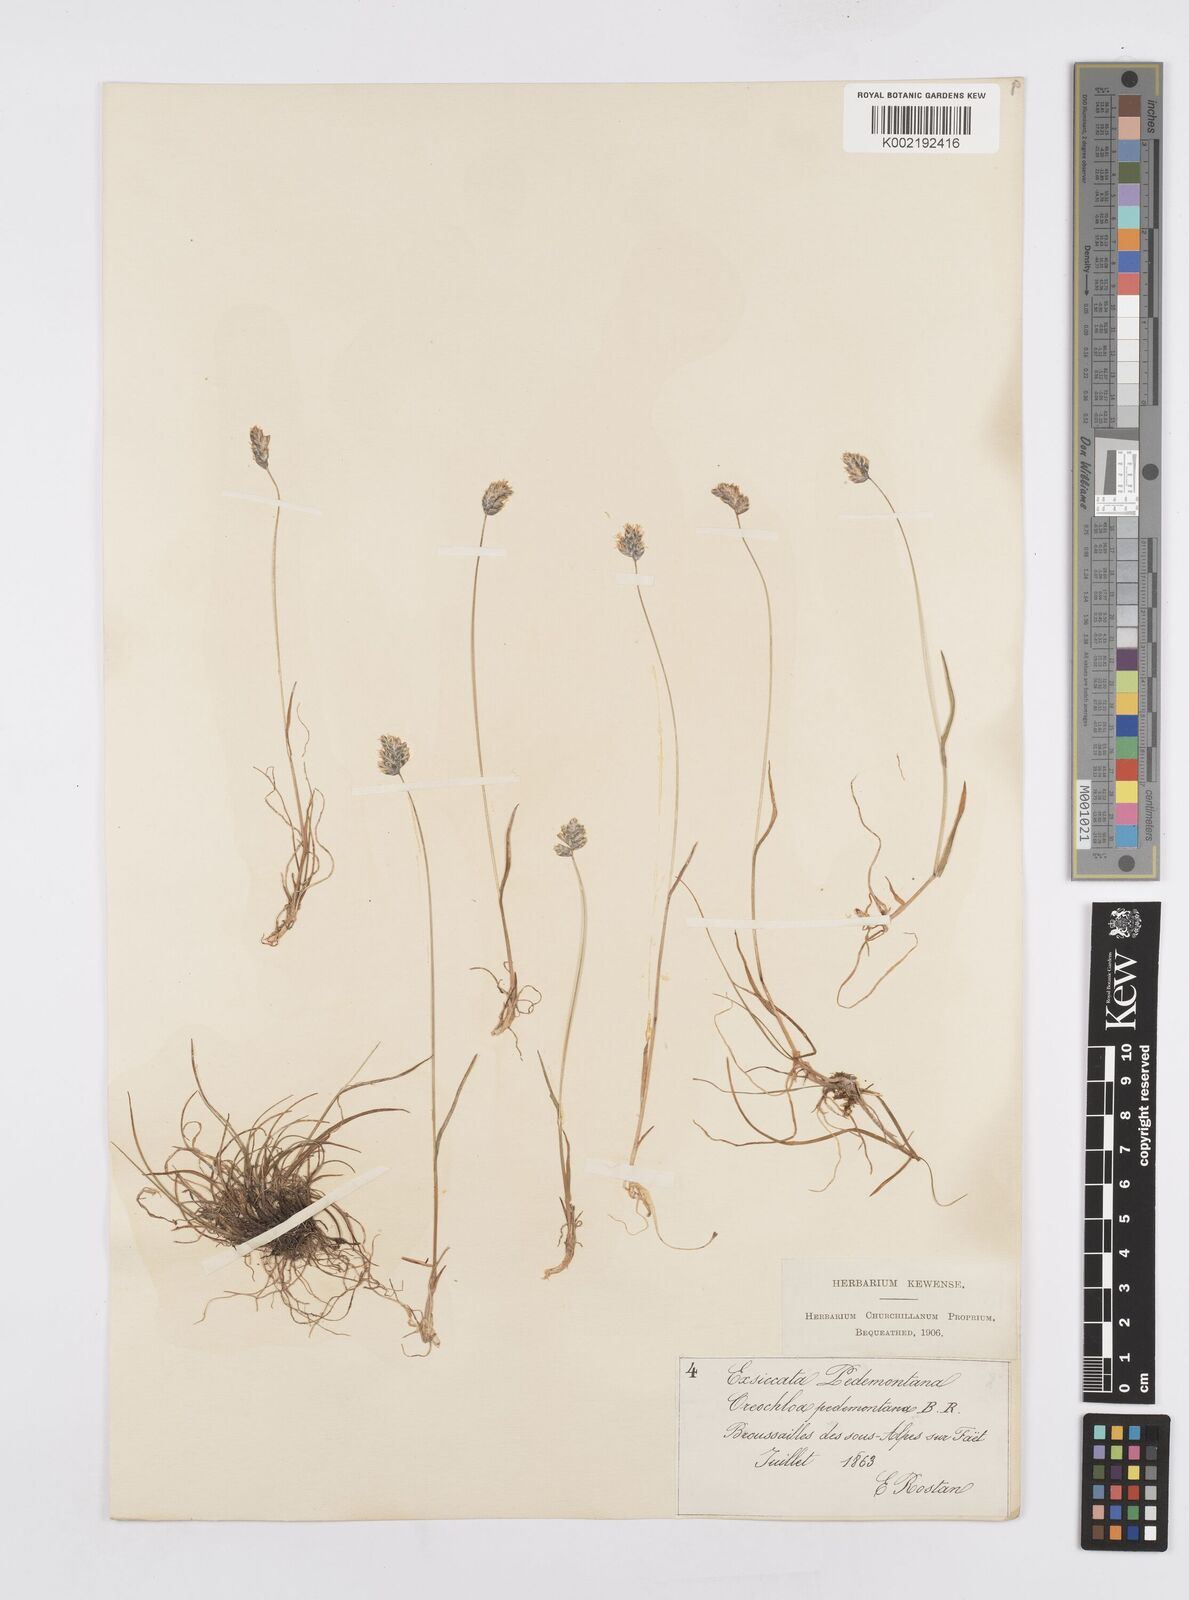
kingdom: Plantae
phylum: Tracheophyta
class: Liliopsida
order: Poales
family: Poaceae
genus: Psilathera
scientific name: Psilathera ovata
